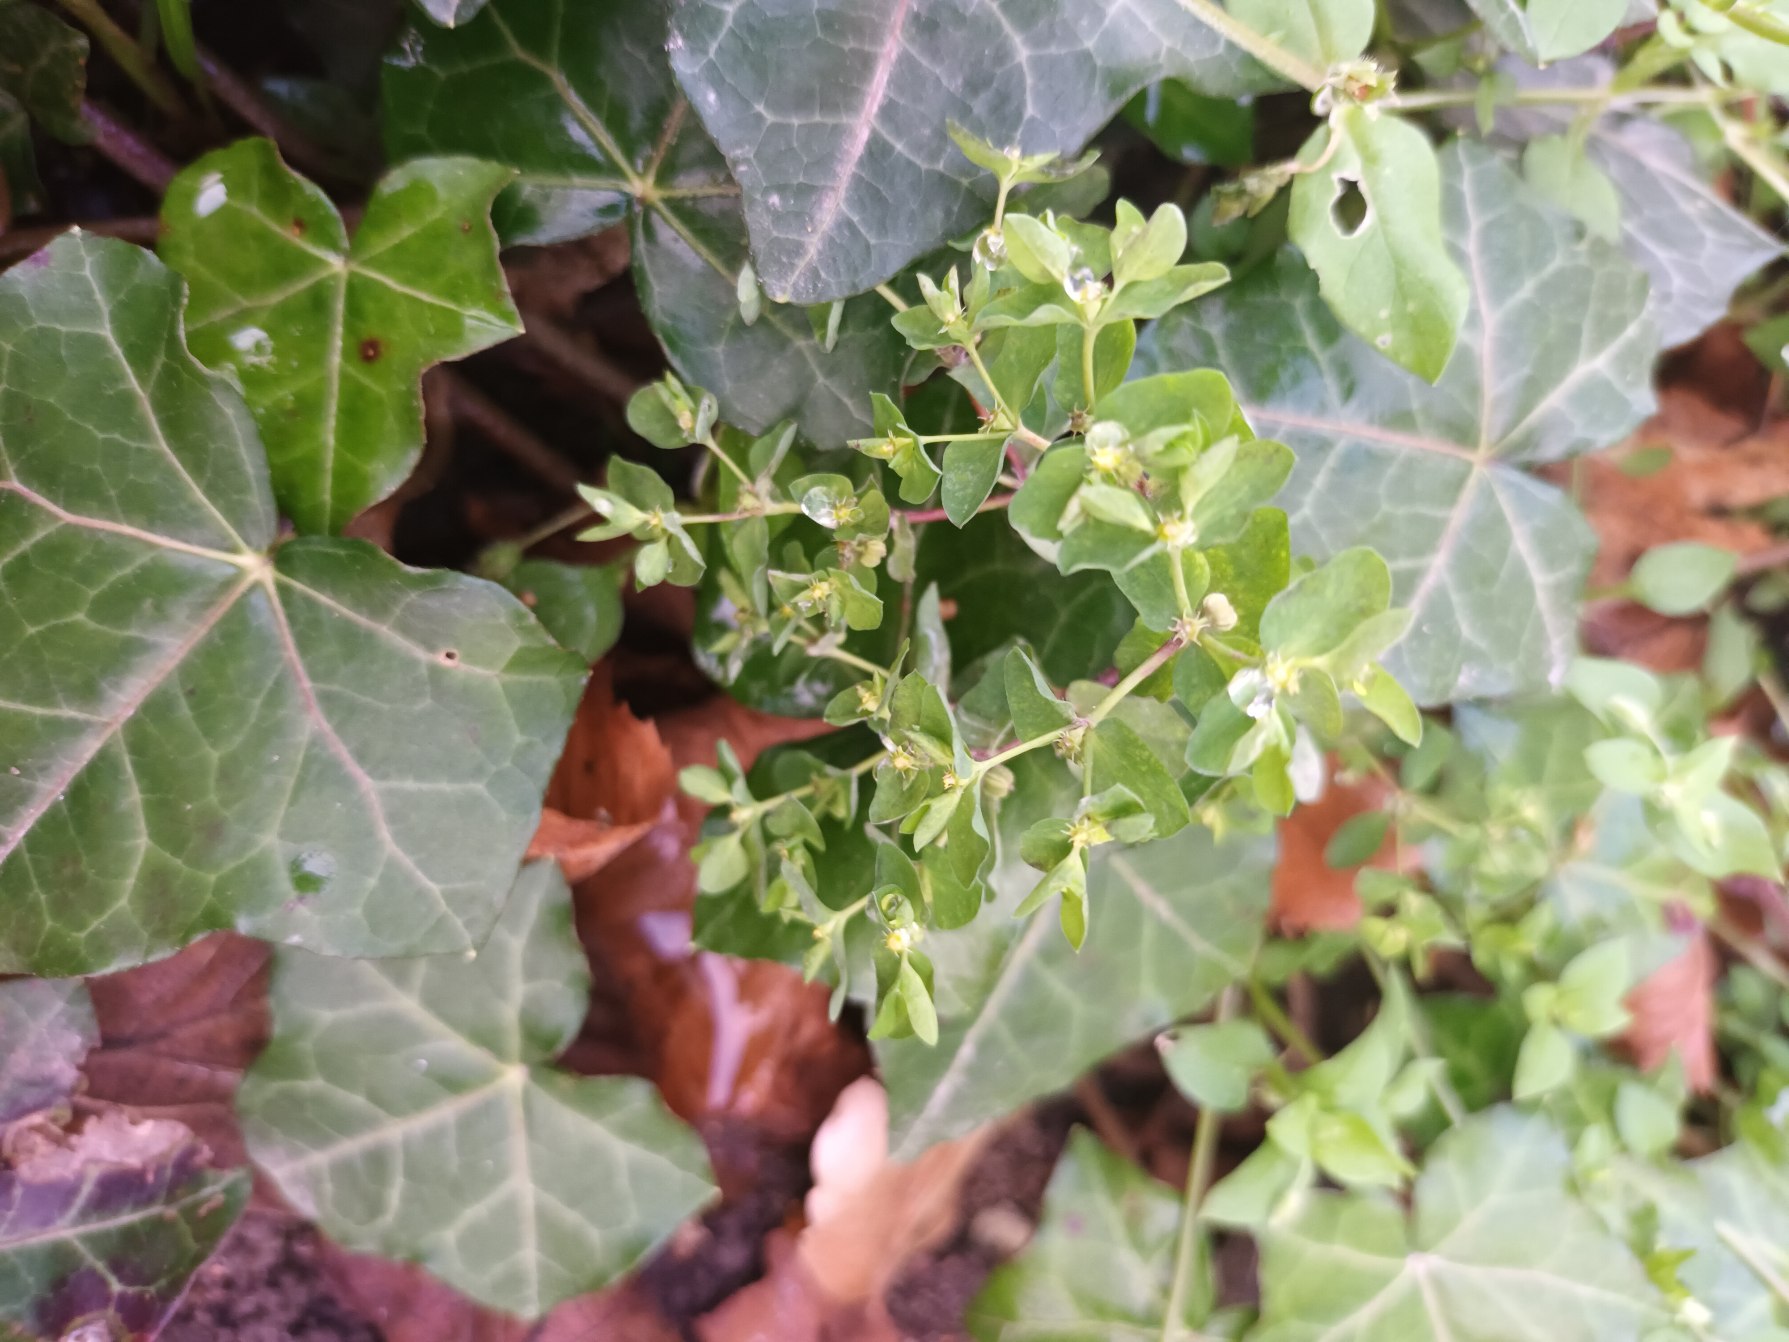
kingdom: Plantae
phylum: Tracheophyta
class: Magnoliopsida
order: Malpighiales
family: Euphorbiaceae
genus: Euphorbia
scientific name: Euphorbia peplus
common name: Gaffel-vortemælk
